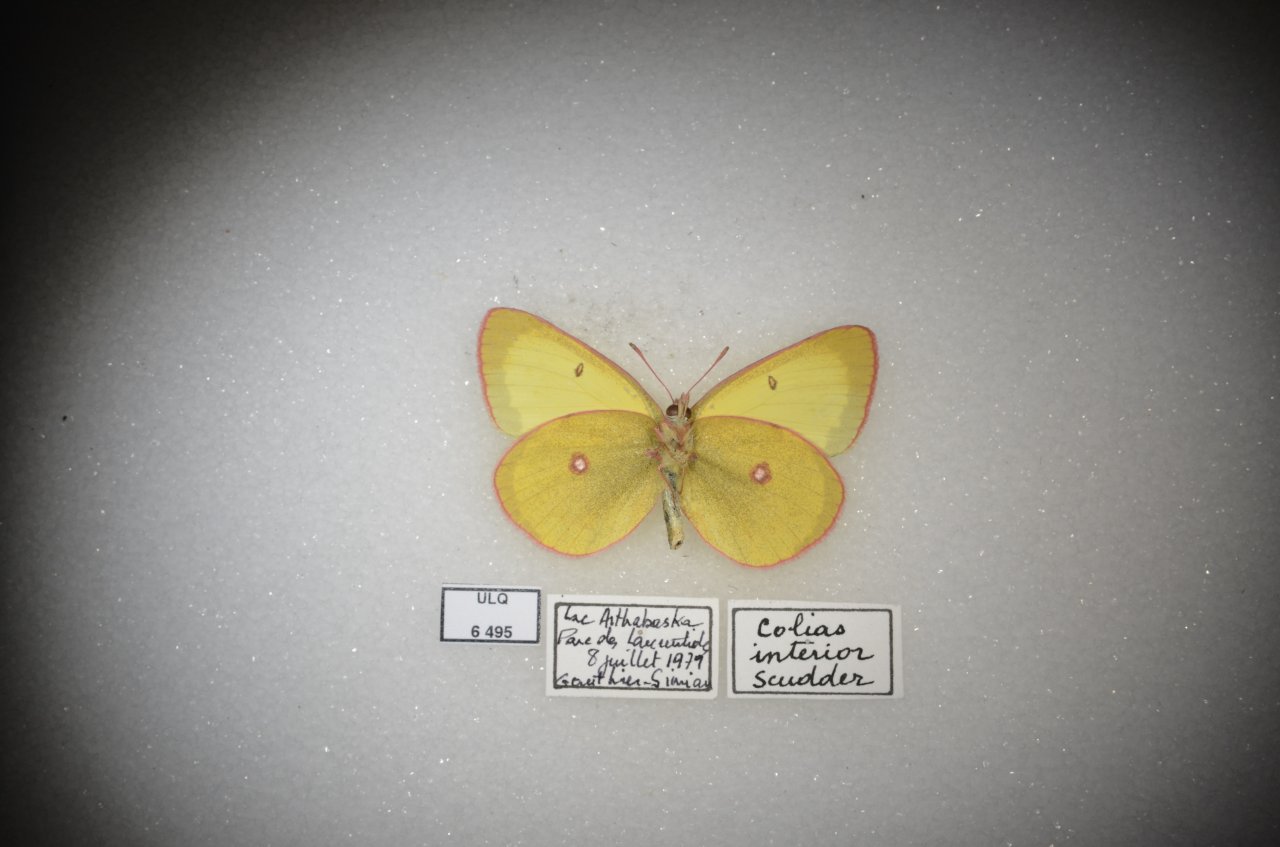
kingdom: Animalia
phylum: Arthropoda
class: Insecta
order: Lepidoptera
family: Pieridae
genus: Colias
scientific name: Colias interior
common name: Pink-edged Sulphur
